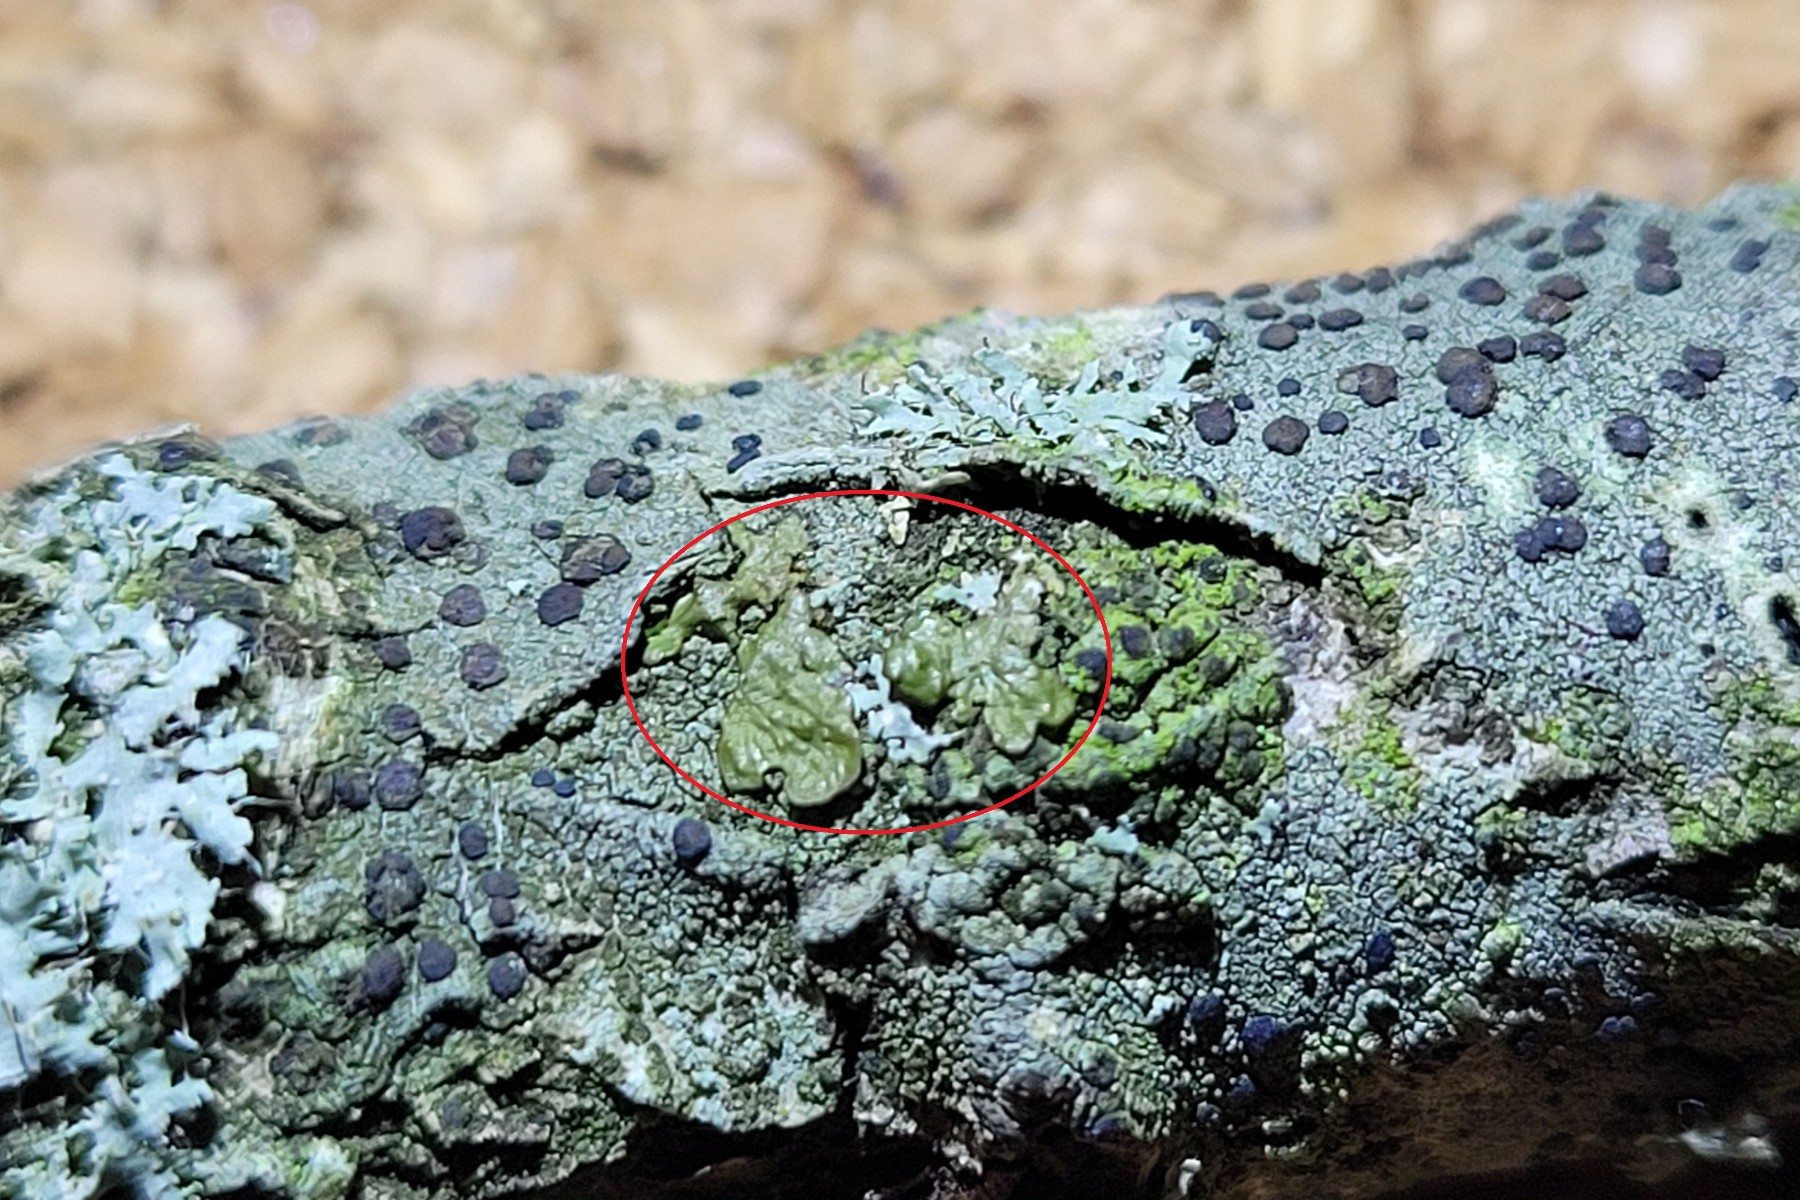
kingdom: Fungi
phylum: Ascomycota
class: Lecanoromycetes
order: Lecanorales
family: Parmeliaceae
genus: Melanelixia
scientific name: Melanelixia glabratula
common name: glinsende skållav
